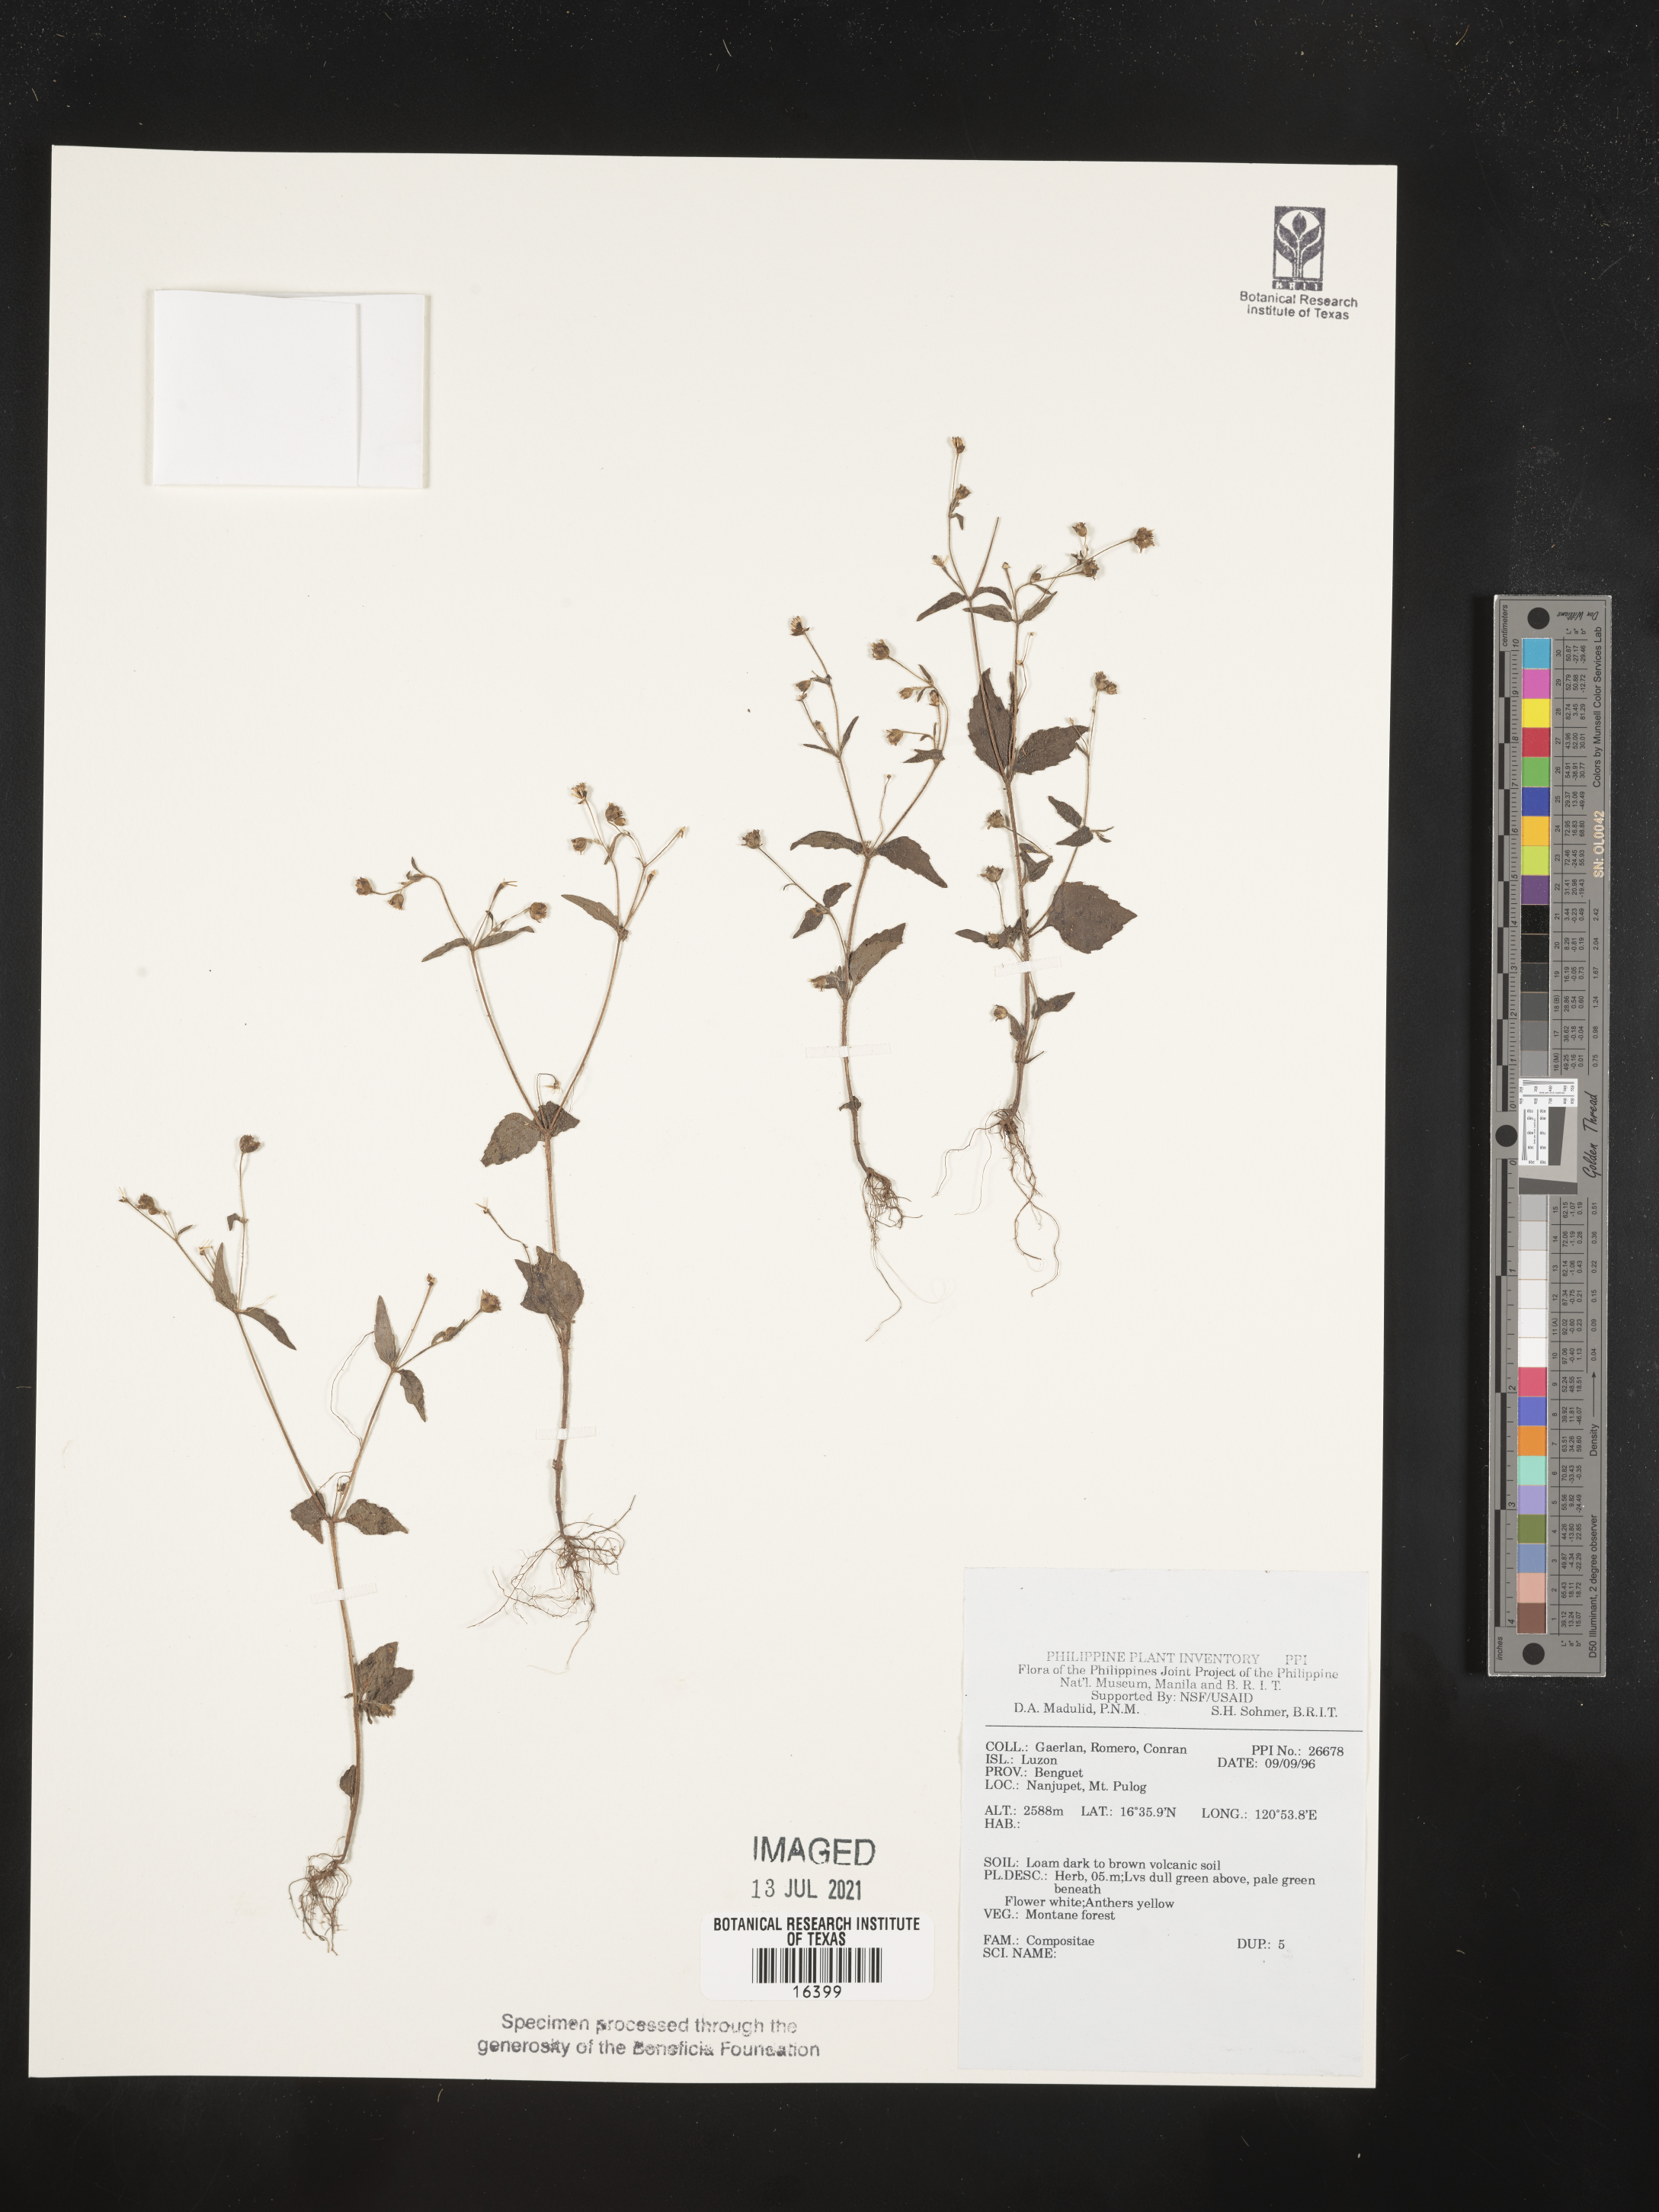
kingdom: Plantae
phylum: Tracheophyta
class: Magnoliopsida
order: Asterales
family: Asteraceae
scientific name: Asteraceae
